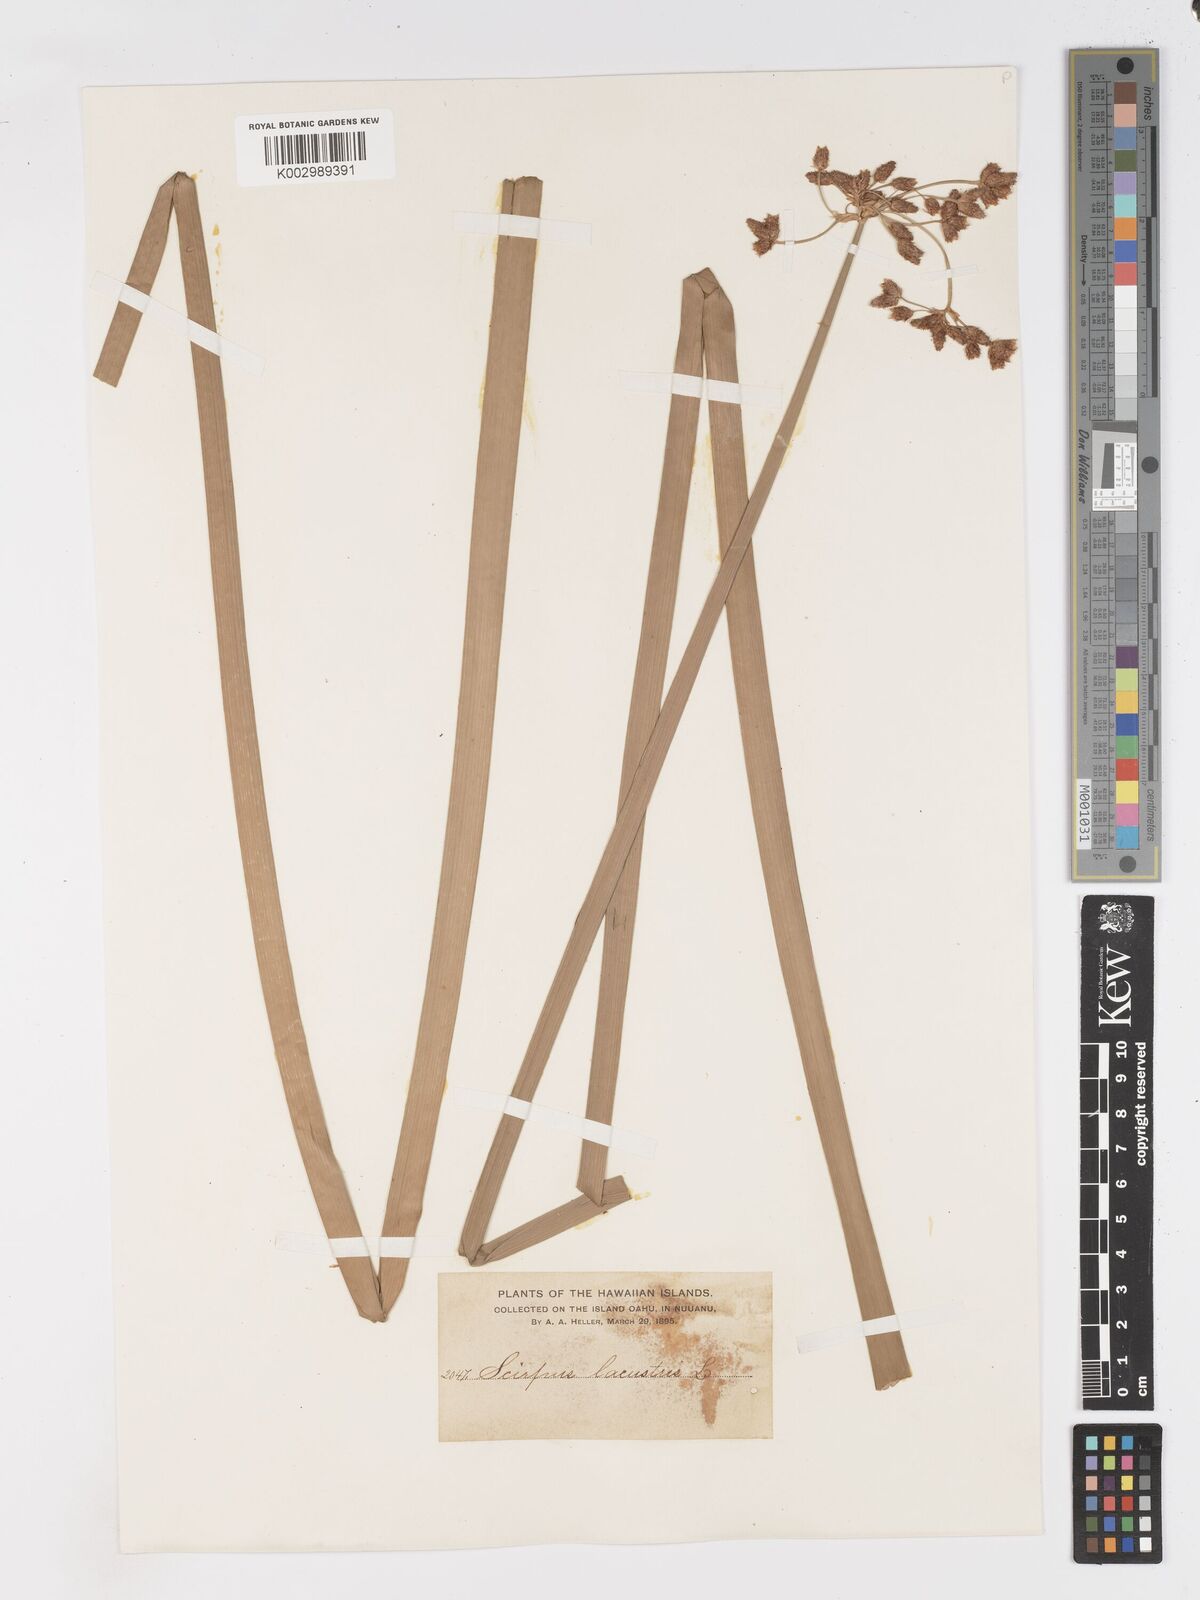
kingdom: Plantae
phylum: Tracheophyta
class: Liliopsida
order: Poales
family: Cyperaceae
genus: Schoenoplectus
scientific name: Schoenoplectus californicus
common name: California bulrush
